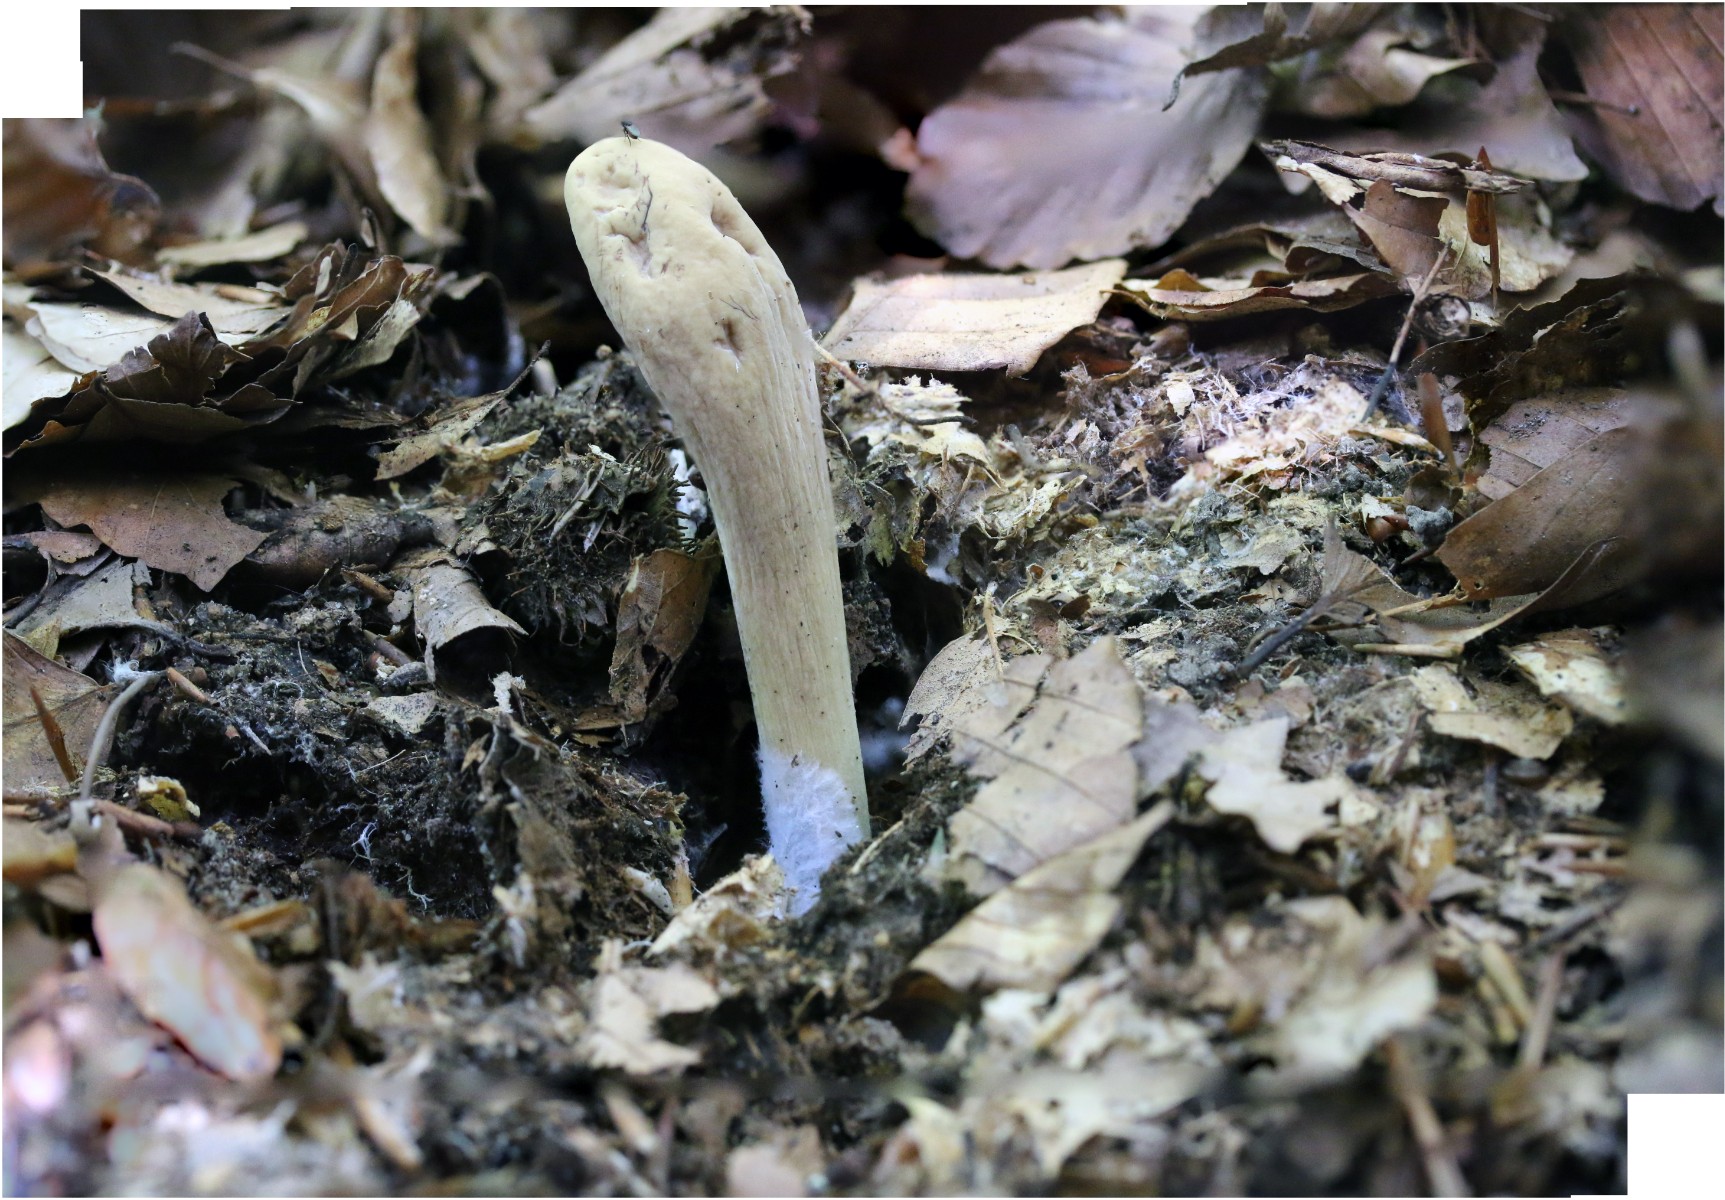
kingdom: Fungi
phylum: Basidiomycota
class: Agaricomycetes
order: Gomphales
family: Clavariadelphaceae
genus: Clavariadelphus
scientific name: Clavariadelphus pistillaris
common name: herkules-kæmpekølle
